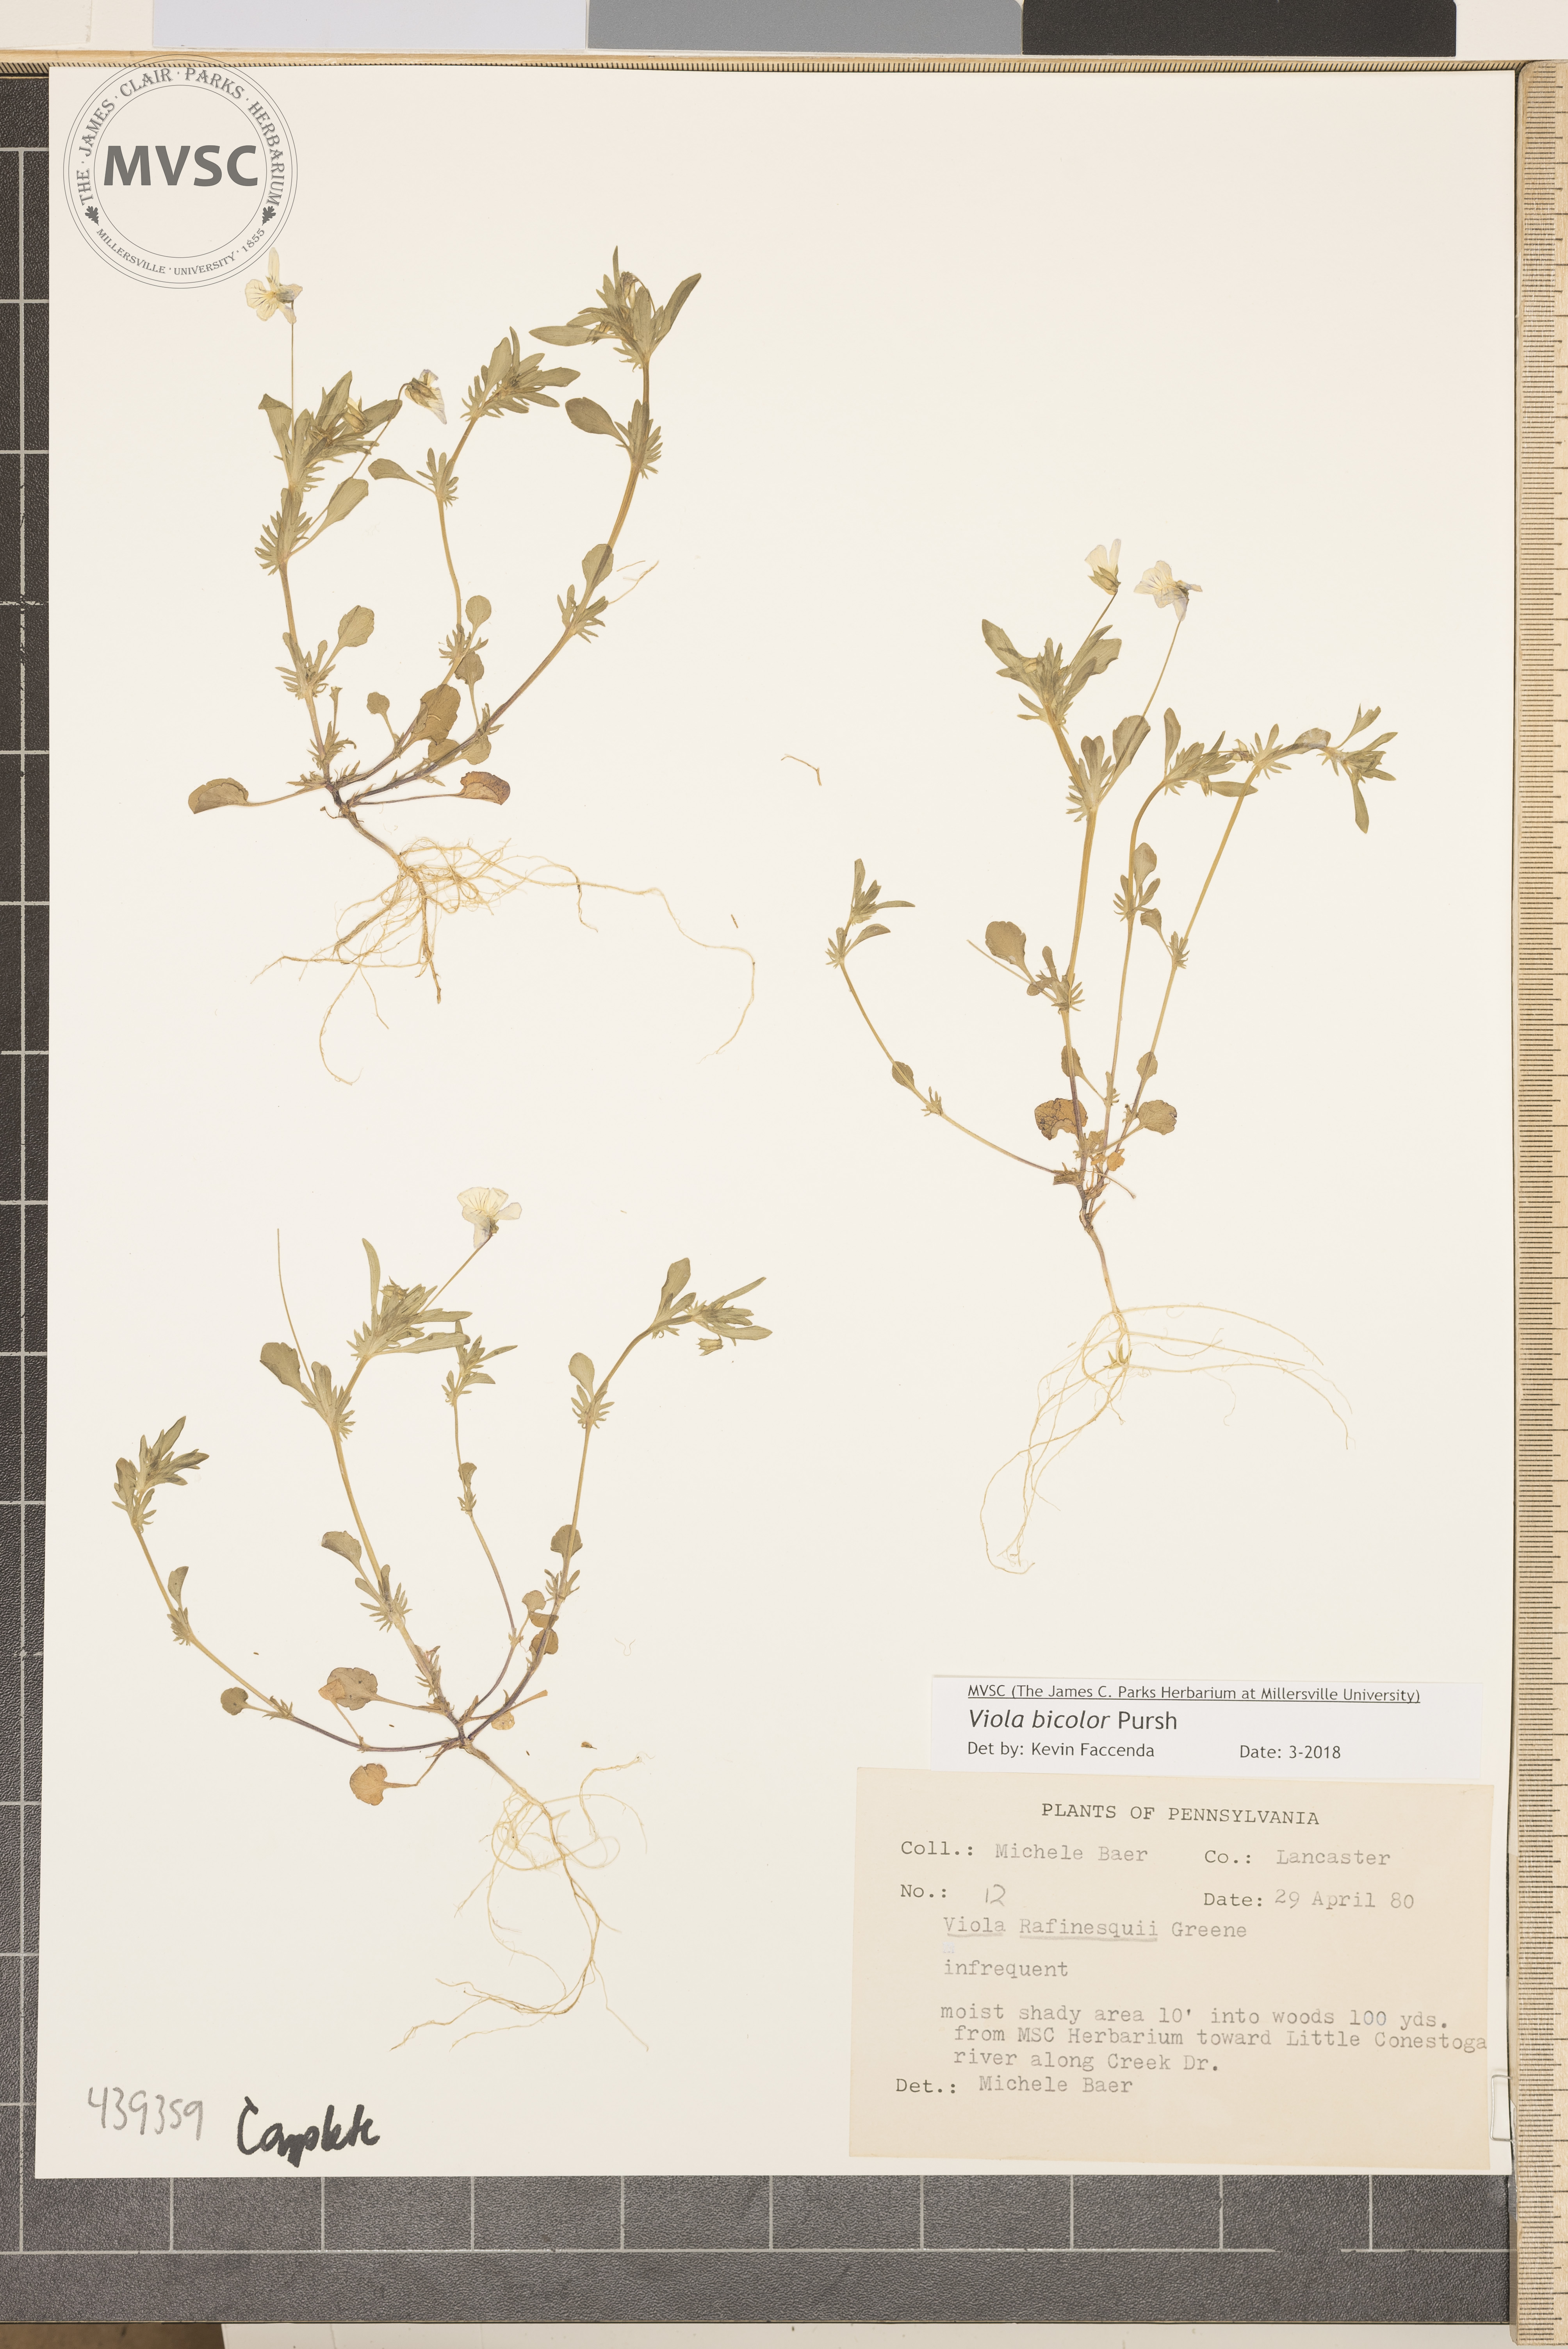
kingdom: Plantae
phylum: Tracheophyta
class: Magnoliopsida
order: Malpighiales
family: Violaceae
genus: Viola
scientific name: Viola rafinesquei
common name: American field pansy
